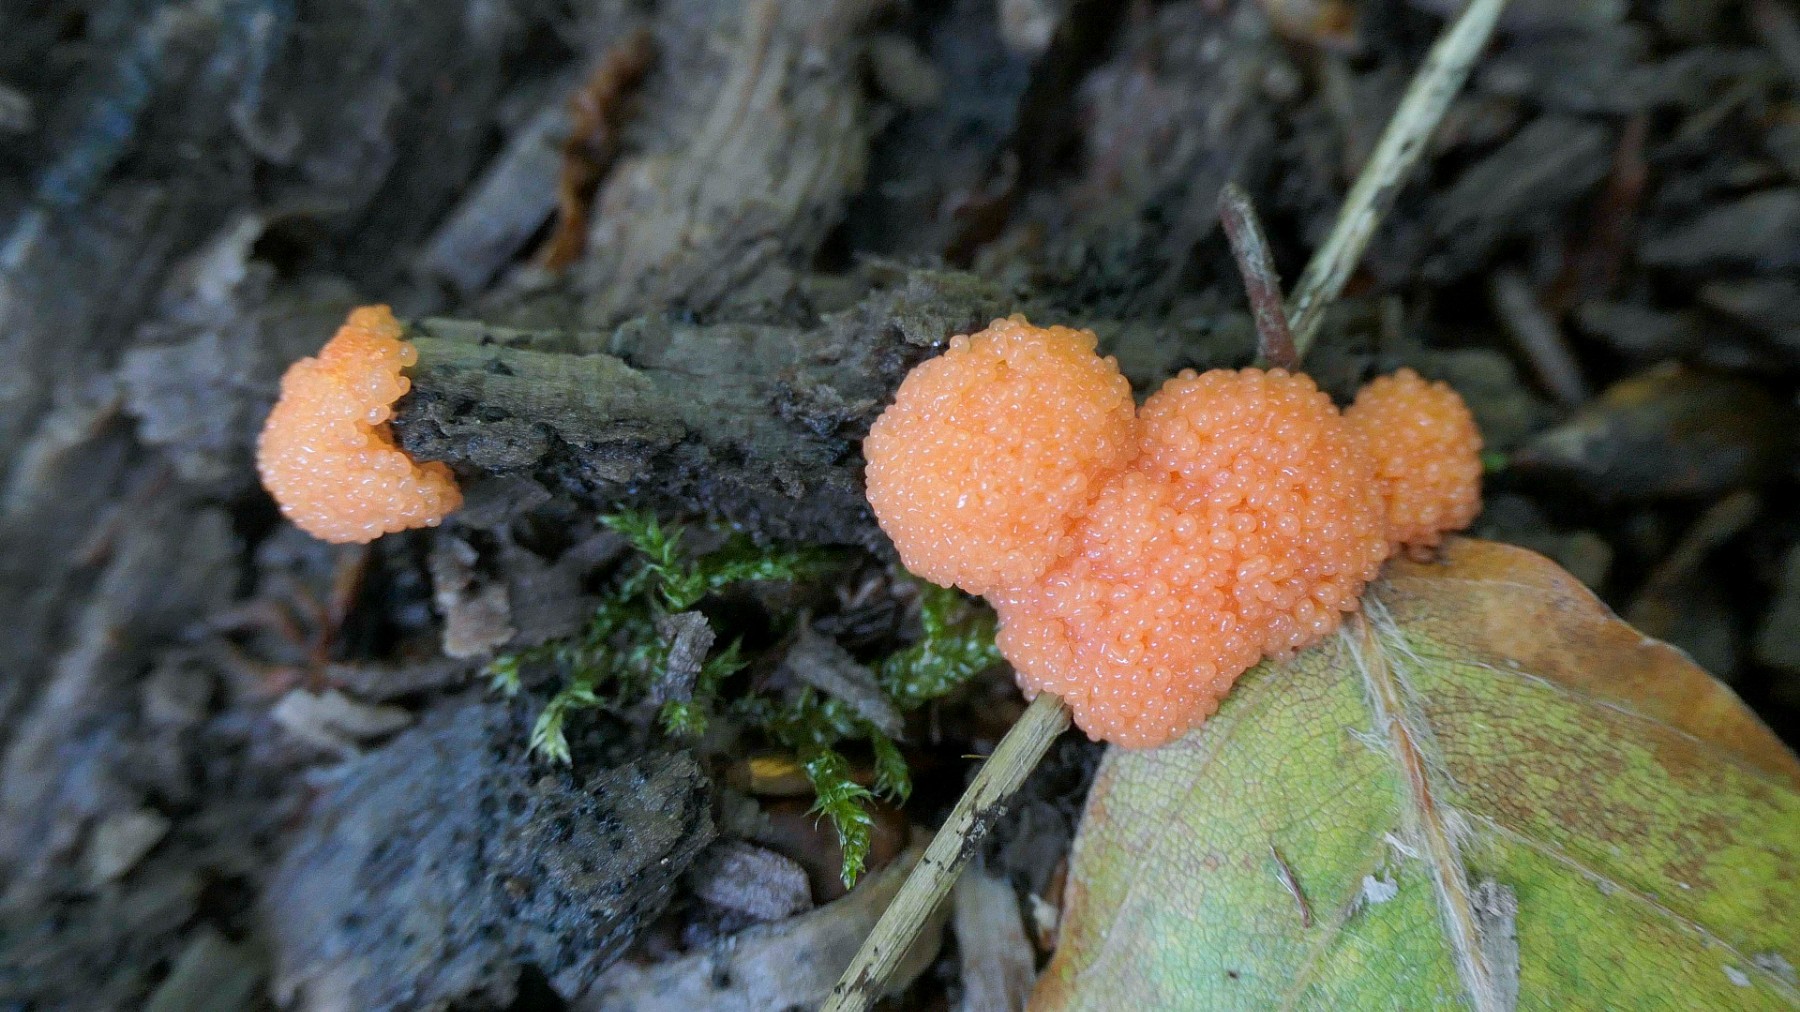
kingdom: Protozoa
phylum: Mycetozoa
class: Myxomycetes
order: Cribrariales
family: Tubiferaceae
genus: Tubifera
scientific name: Tubifera ferruginosa
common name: kanel-støvrør
